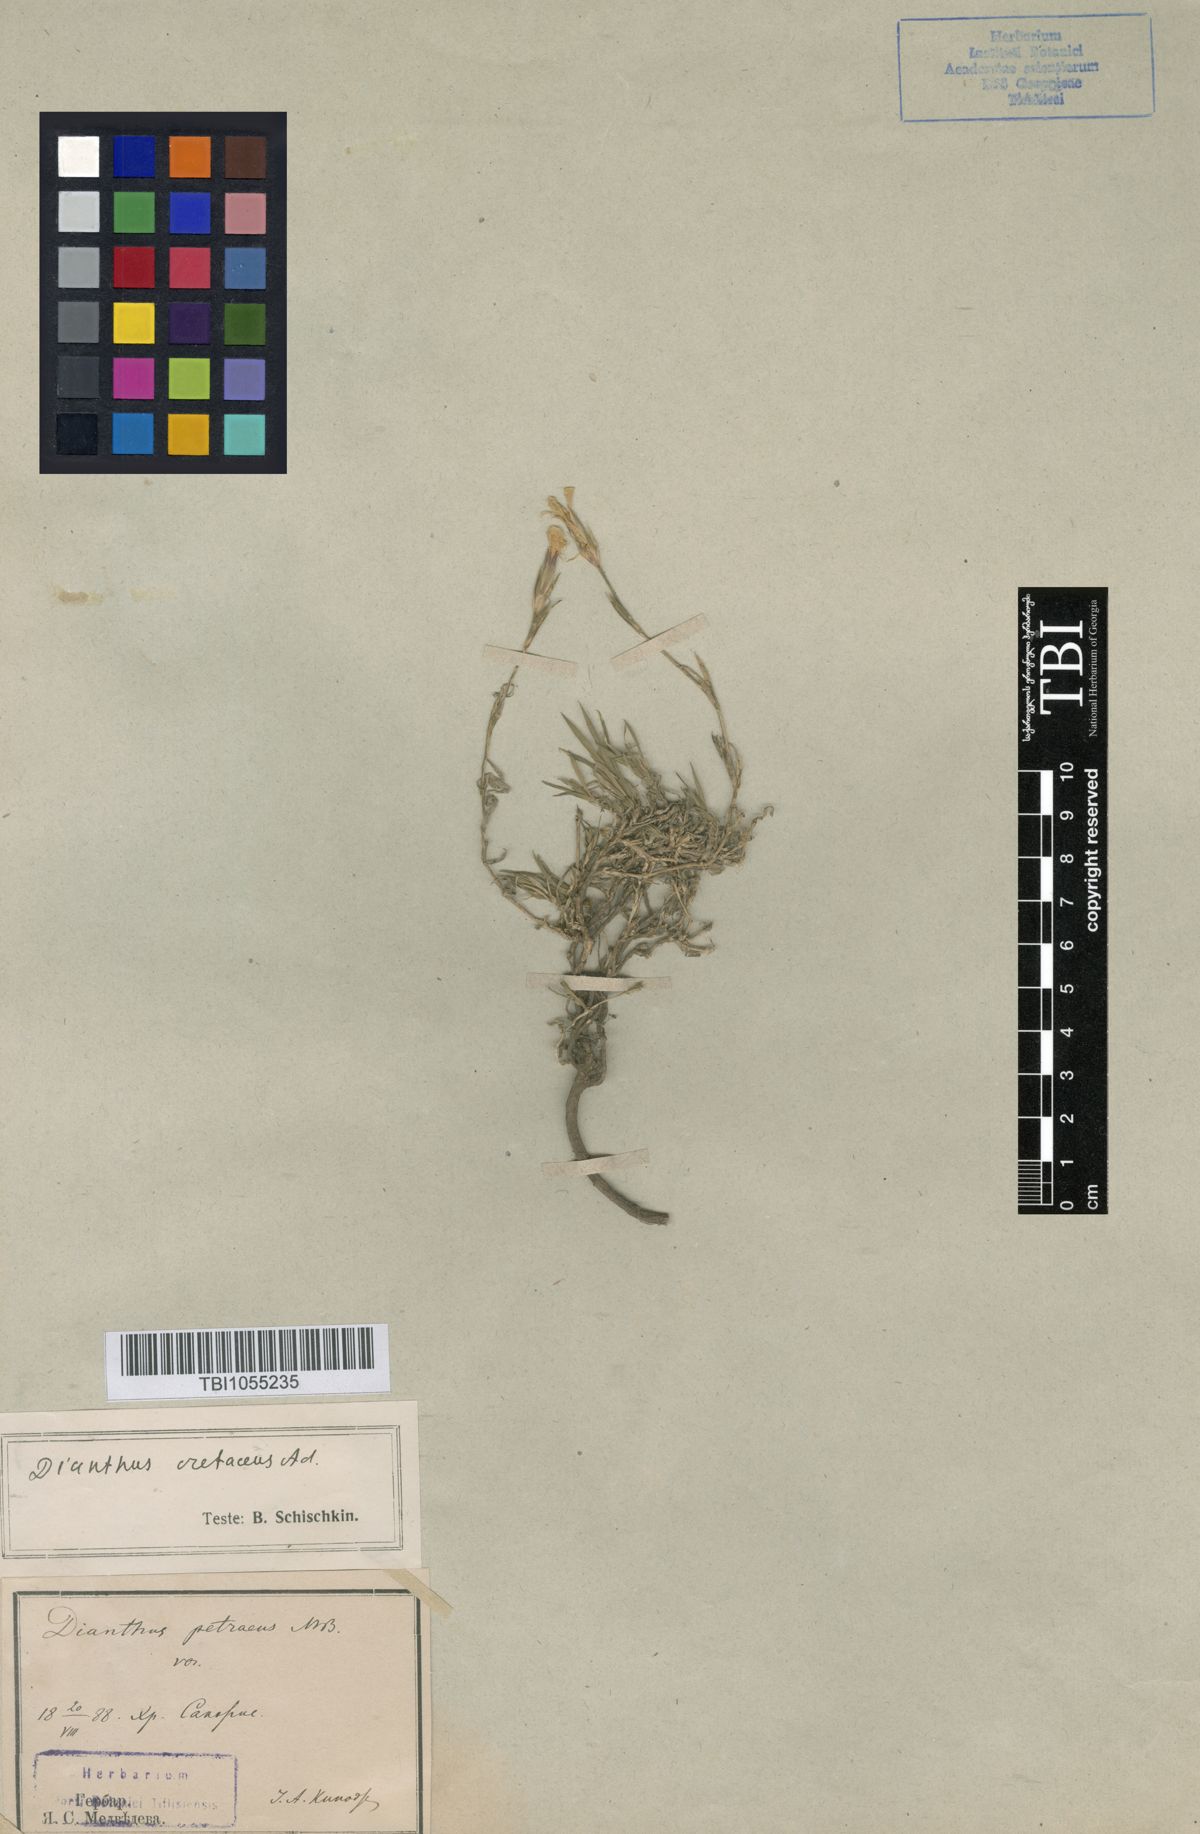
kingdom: Plantae
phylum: Tracheophyta
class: Magnoliopsida
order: Caryophyllales
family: Caryophyllaceae
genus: Dianthus
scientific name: Dianthus cretaceus
